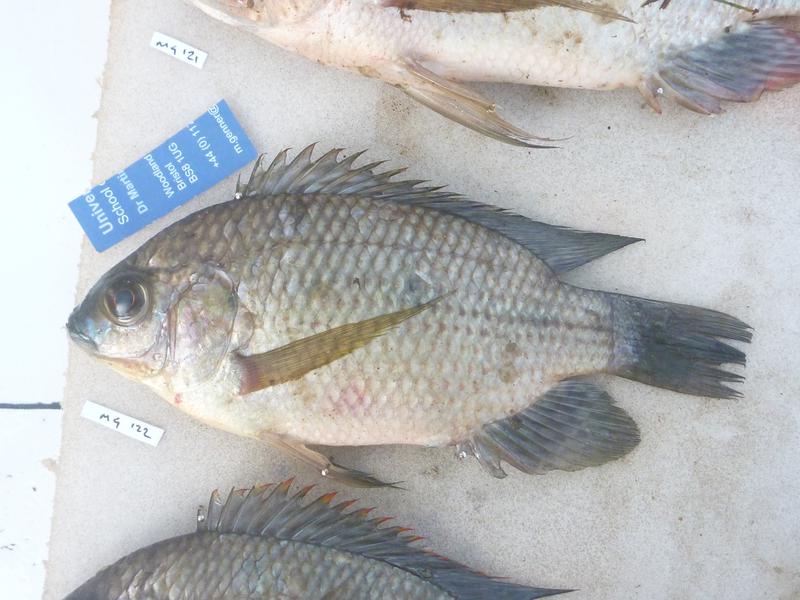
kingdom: Animalia
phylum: Chordata
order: Perciformes
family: Cichlidae
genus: Oreochromis
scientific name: Oreochromis upembae
